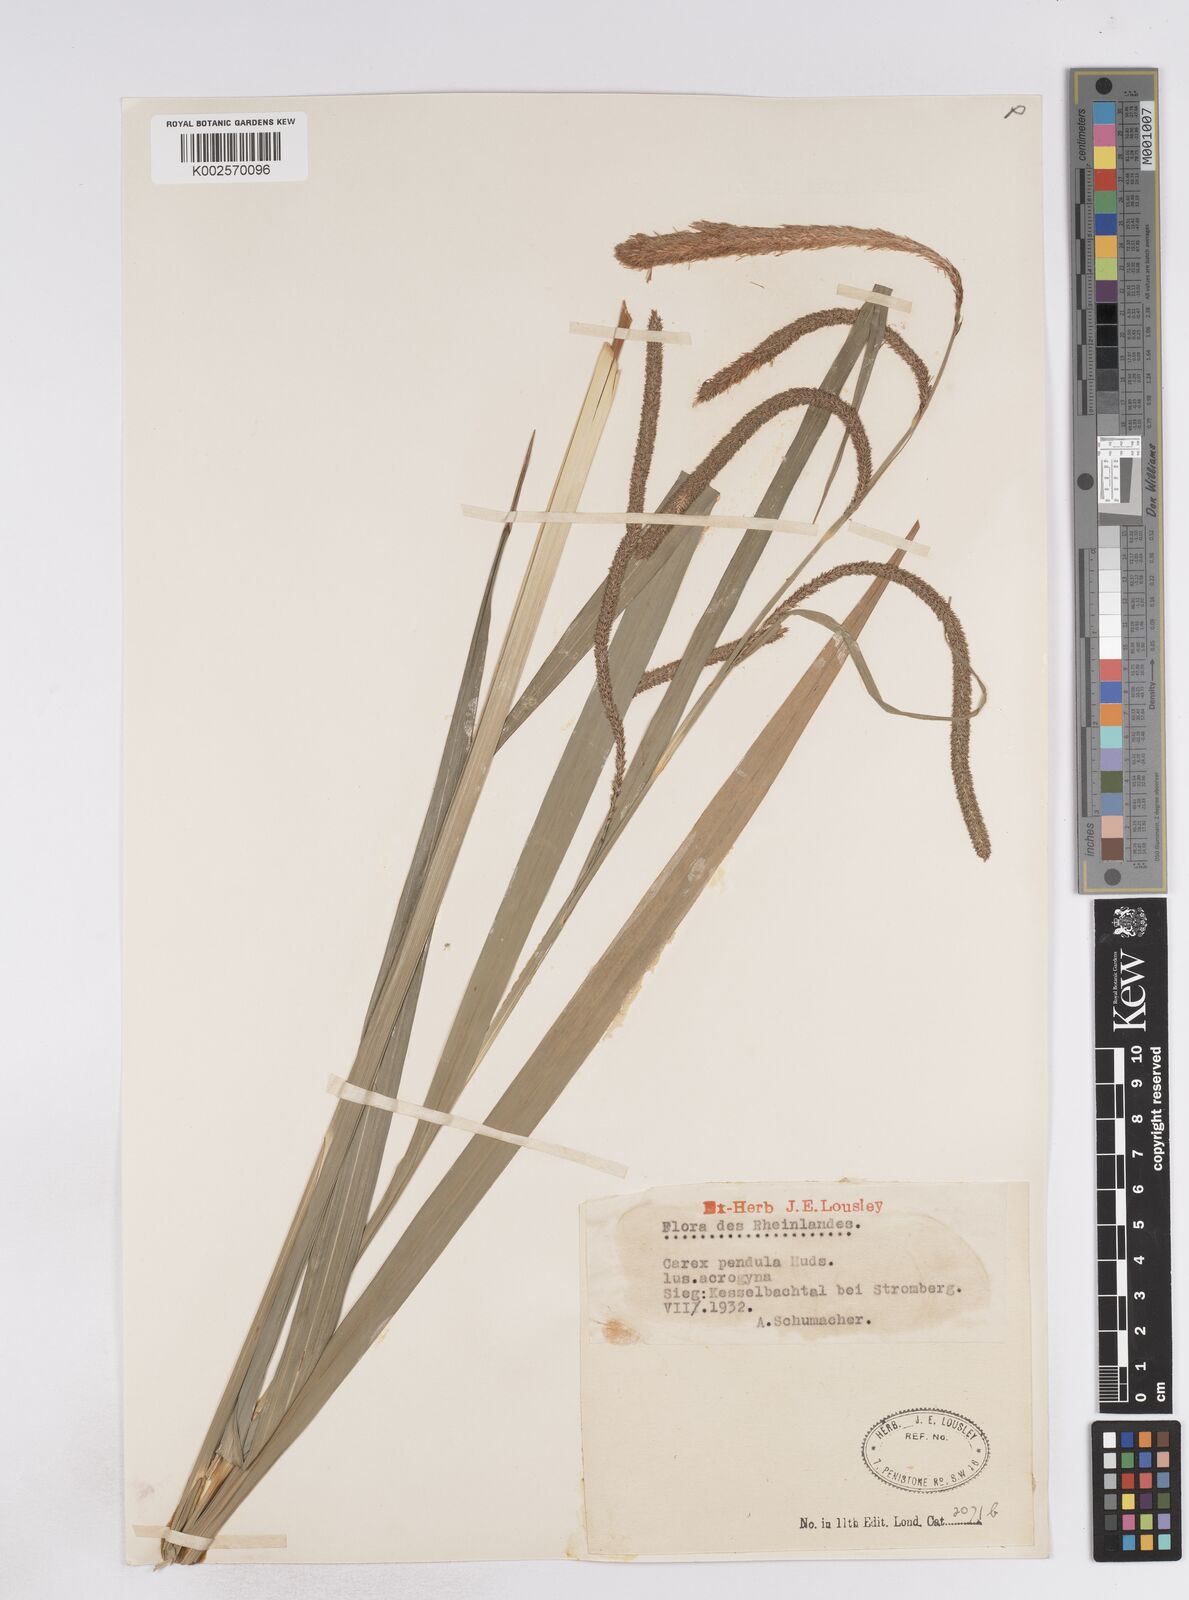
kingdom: Plantae
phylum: Tracheophyta
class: Liliopsida
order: Poales
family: Cyperaceae
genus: Carex
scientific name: Carex pendula
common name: Pendulous sedge
